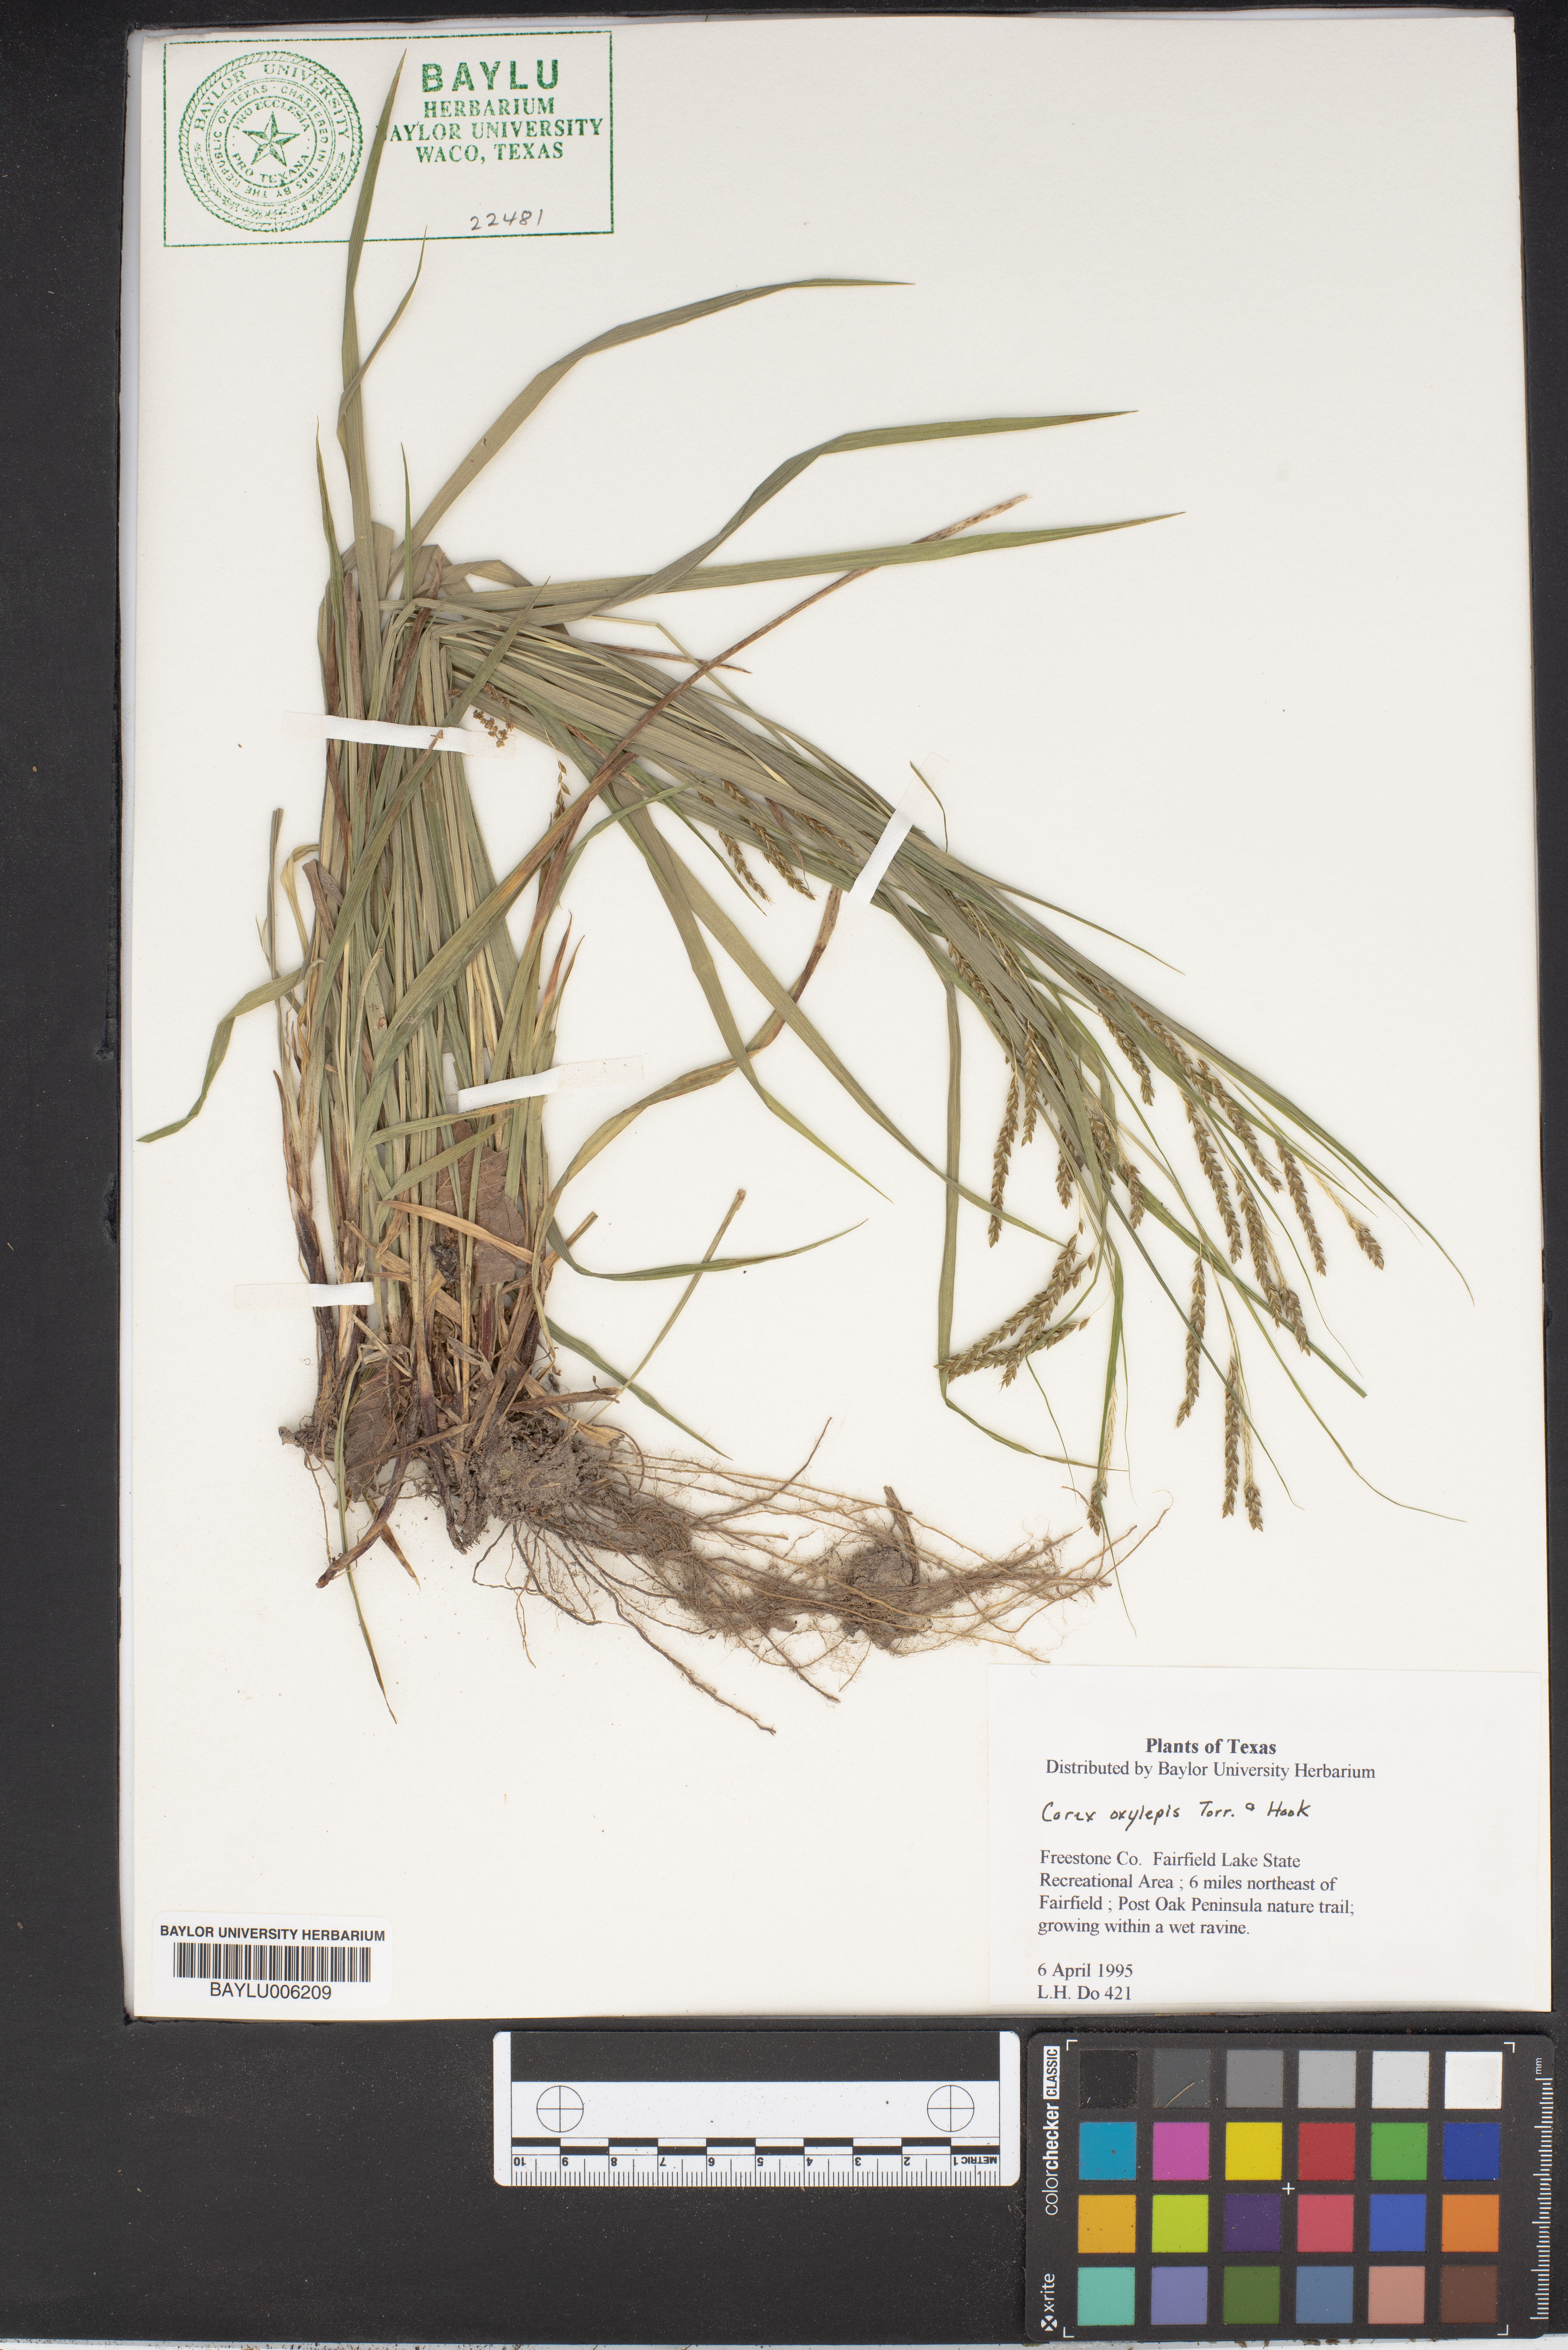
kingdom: Plantae
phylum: Tracheophyta
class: Liliopsida
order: Poales
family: Cyperaceae
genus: Carex
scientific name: Carex oxylepis
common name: Sharpscale sedge
